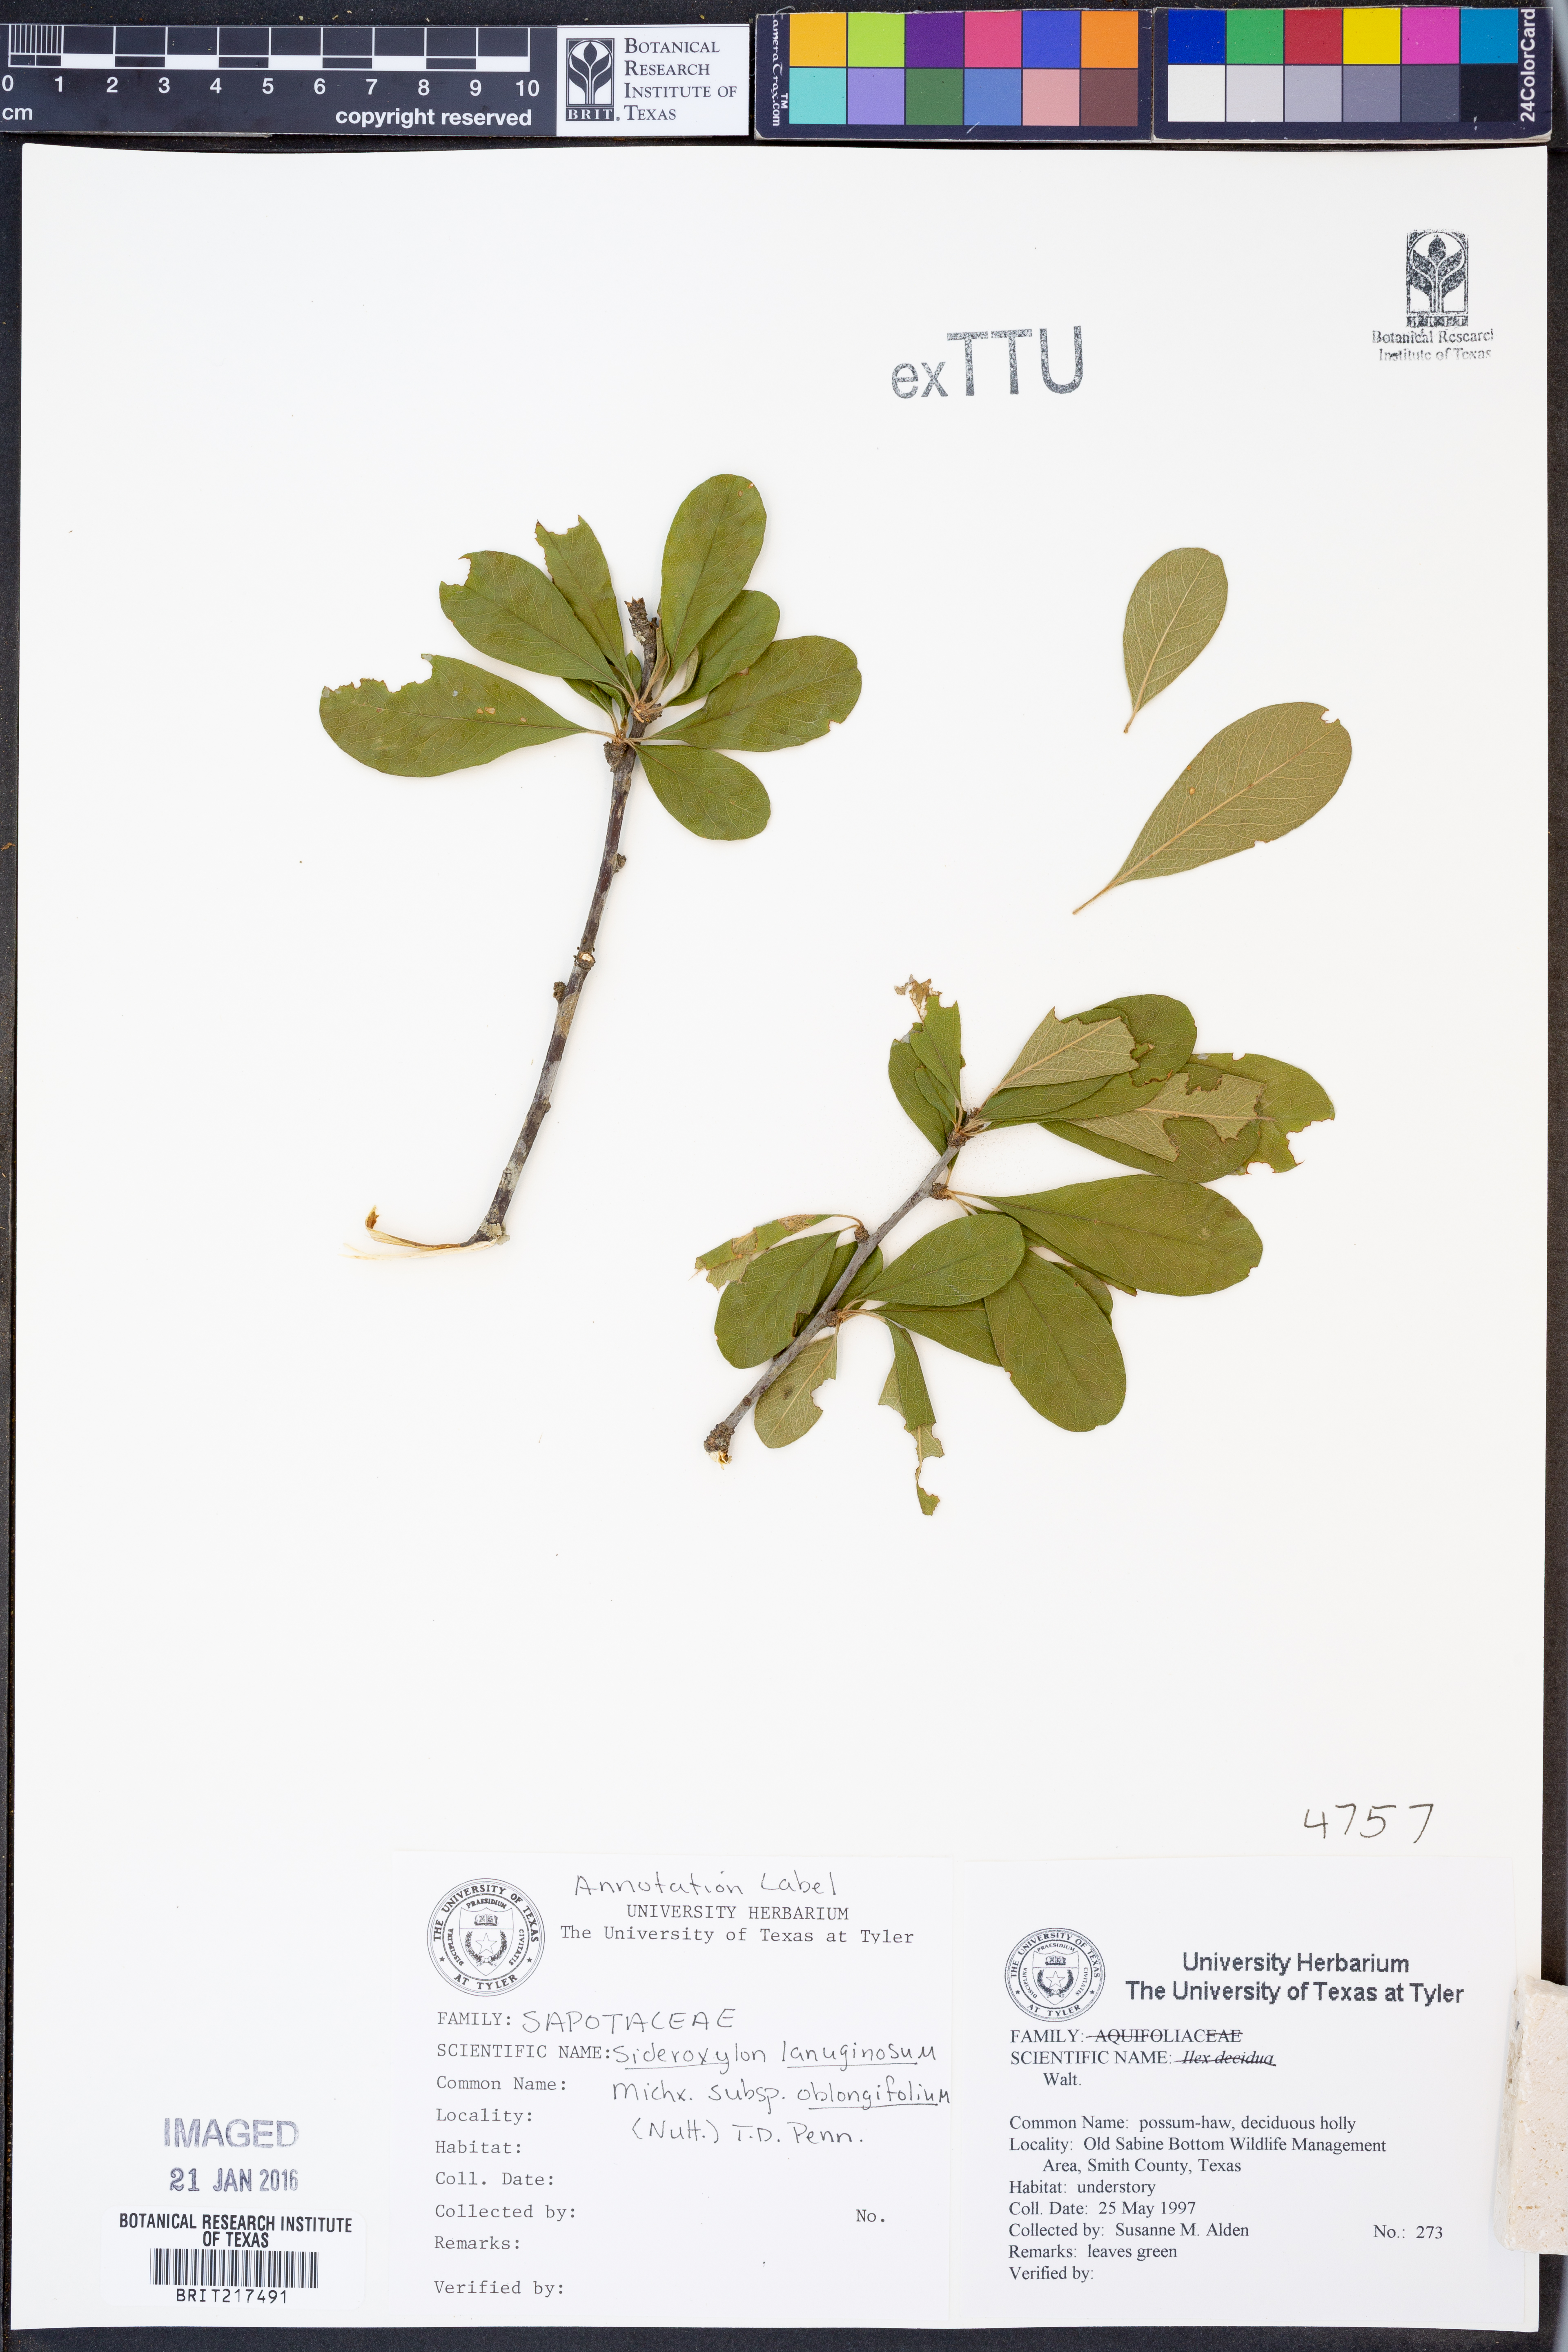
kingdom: Plantae
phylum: Tracheophyta
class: Magnoliopsida
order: Ericales
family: Sapotaceae
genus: Sideroxylon
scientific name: Sideroxylon lanuginosum
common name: Chittamwood
